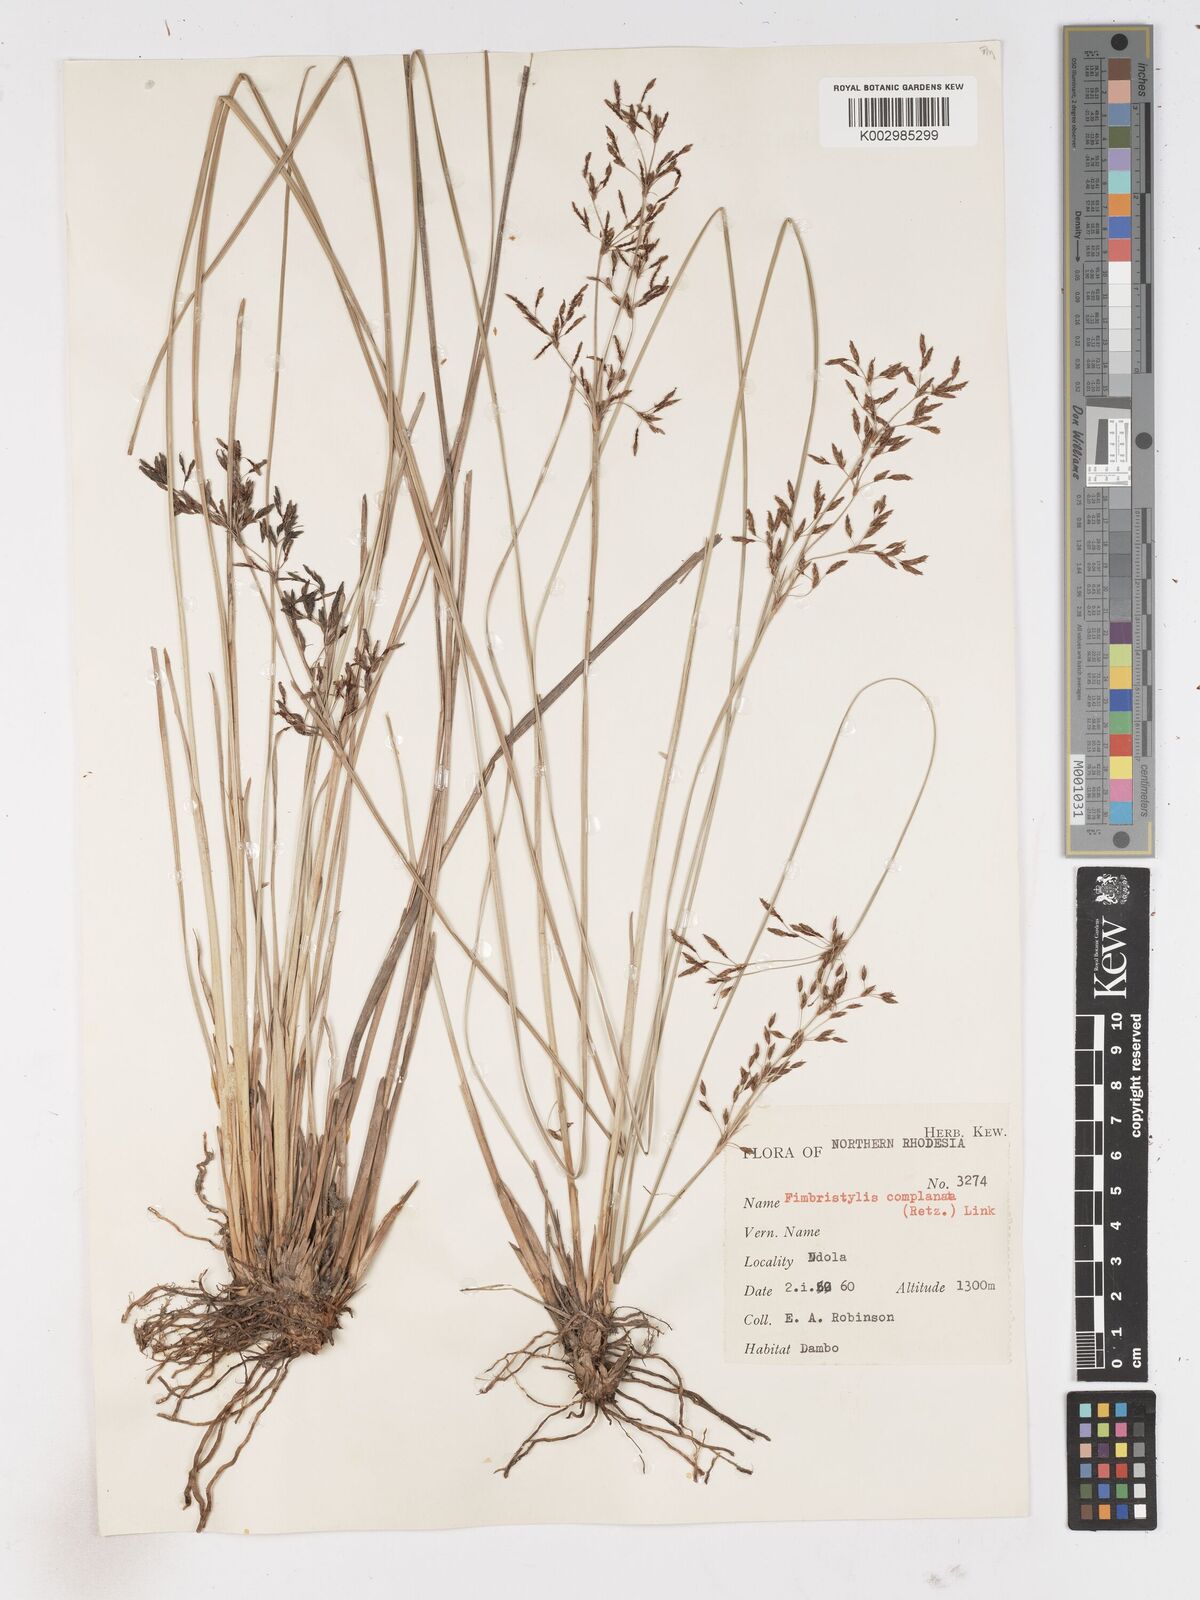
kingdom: Plantae
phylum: Tracheophyta
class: Liliopsida
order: Poales
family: Cyperaceae
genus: Fimbristylis
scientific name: Fimbristylis complanata
